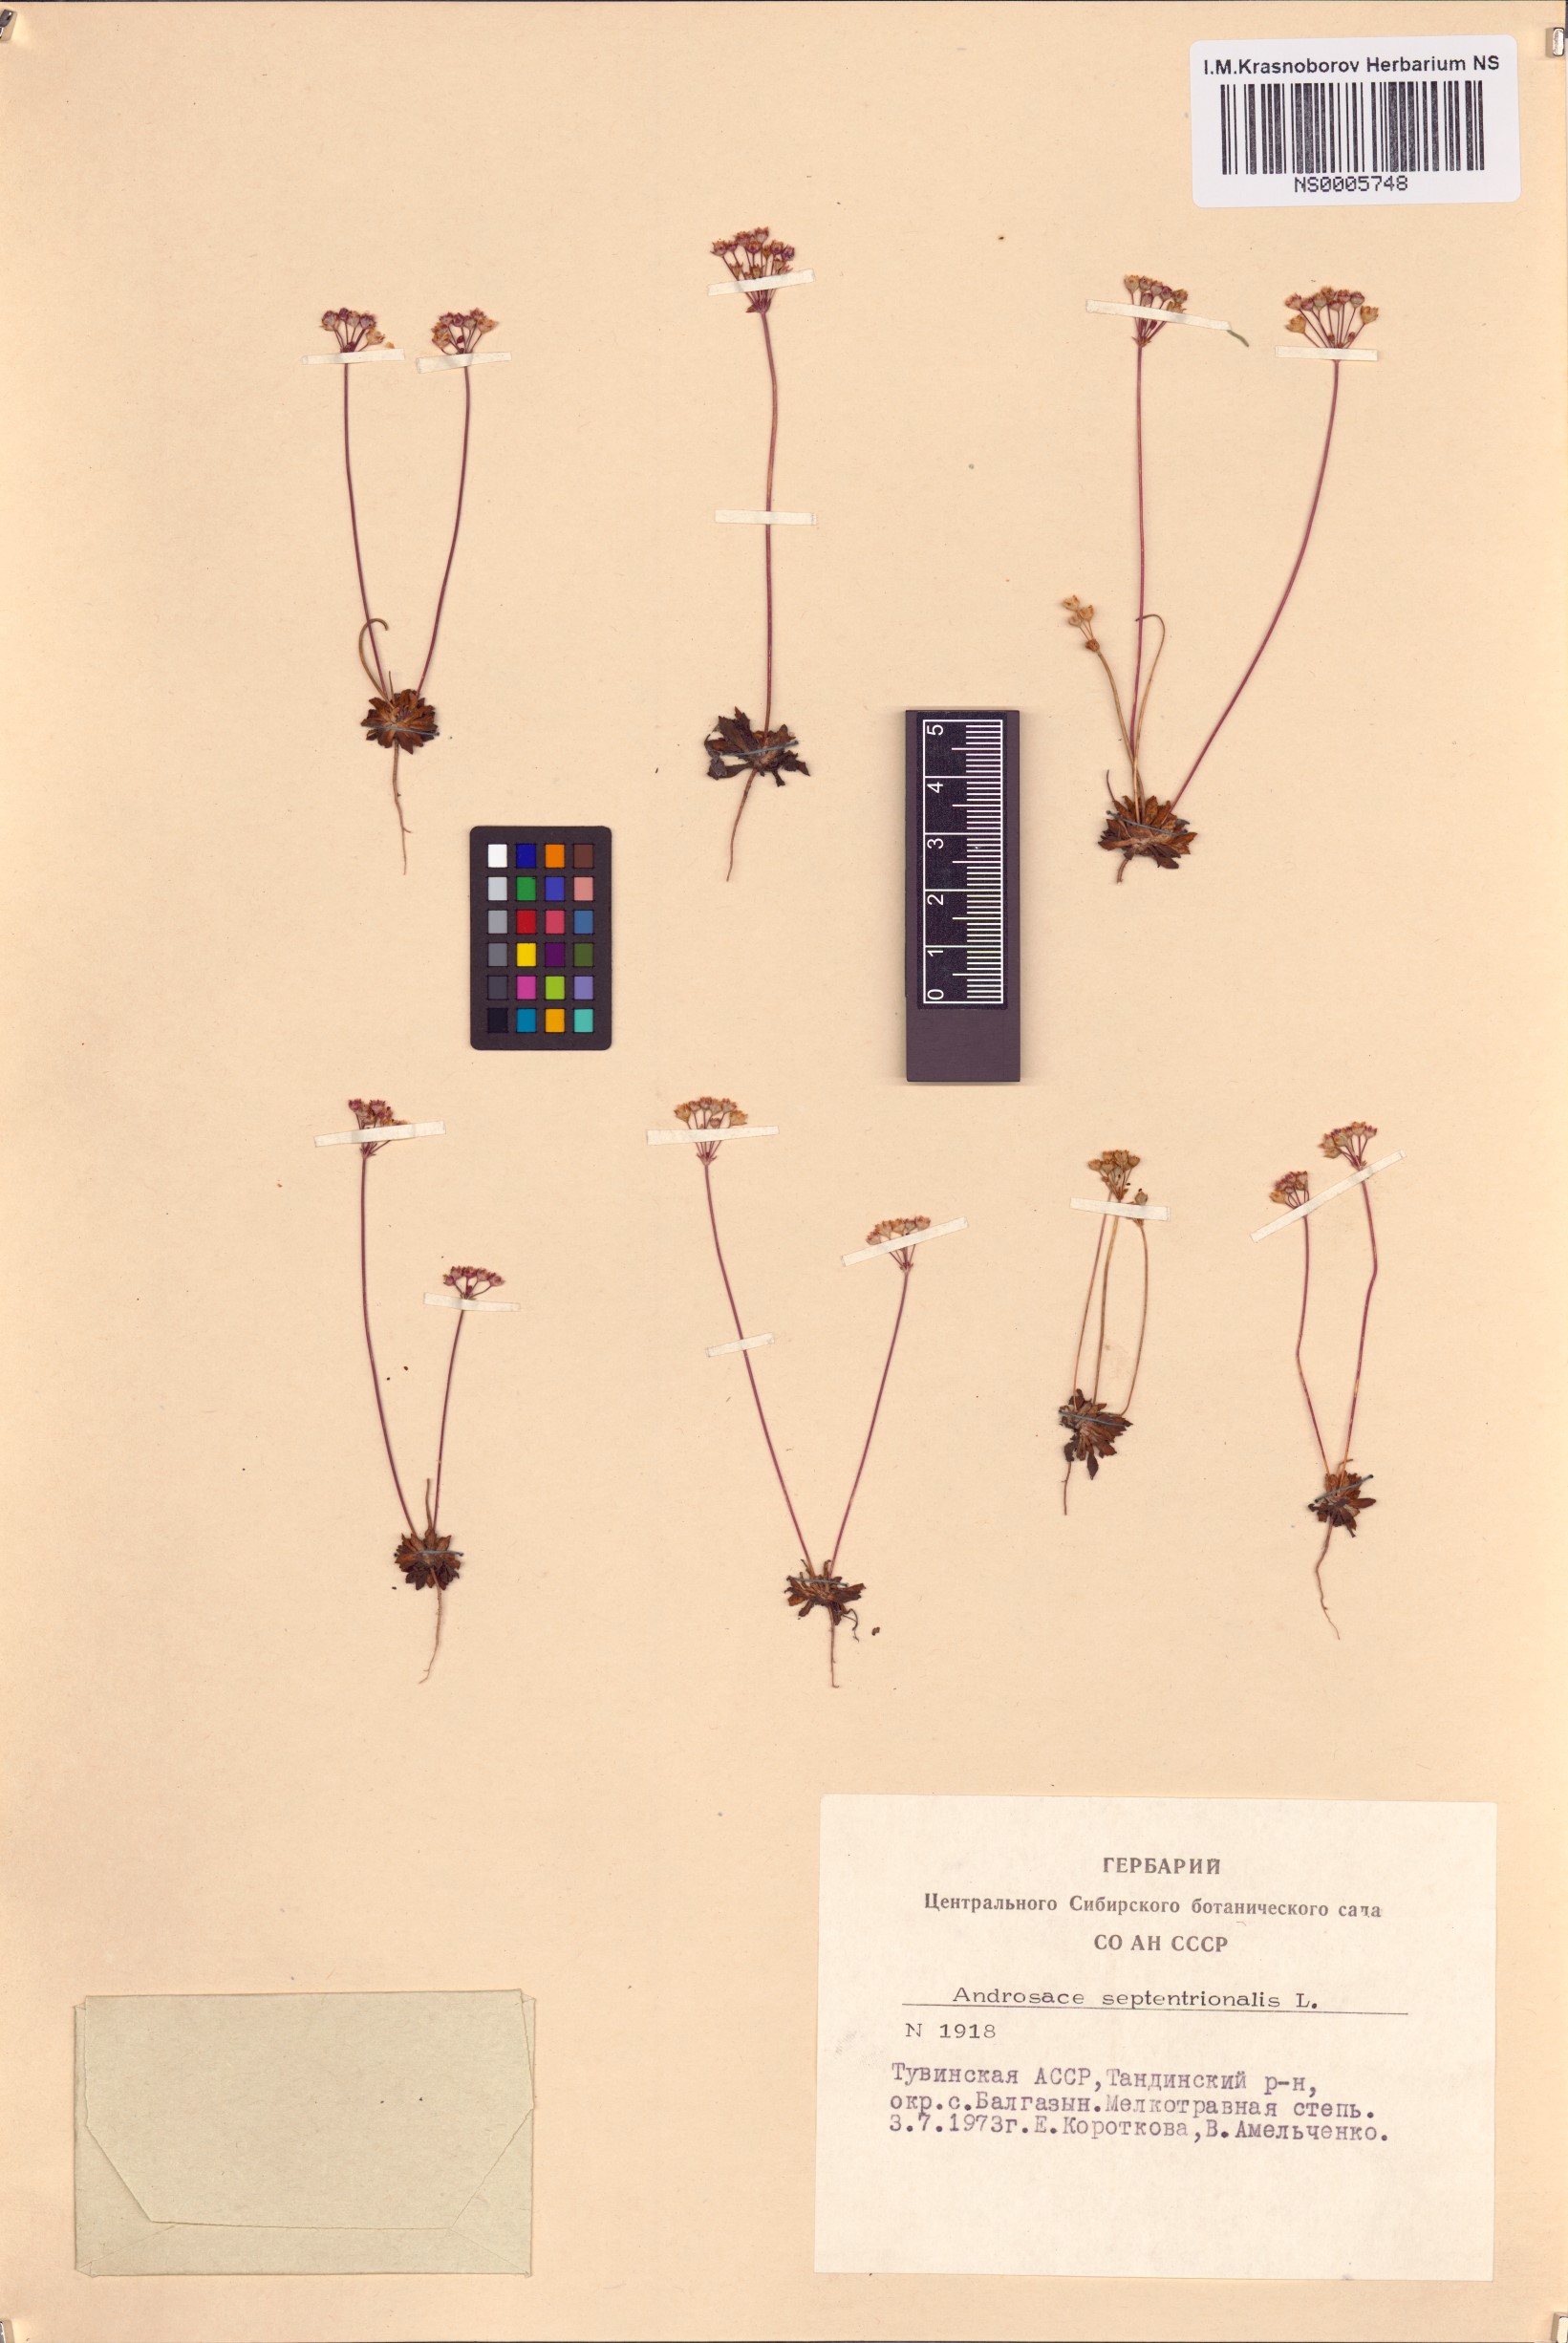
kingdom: Plantae
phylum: Tracheophyta
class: Magnoliopsida
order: Ericales
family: Primulaceae
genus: Androsace
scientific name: Androsace septentrionalis
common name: Hairy northern fairy-candelabra
